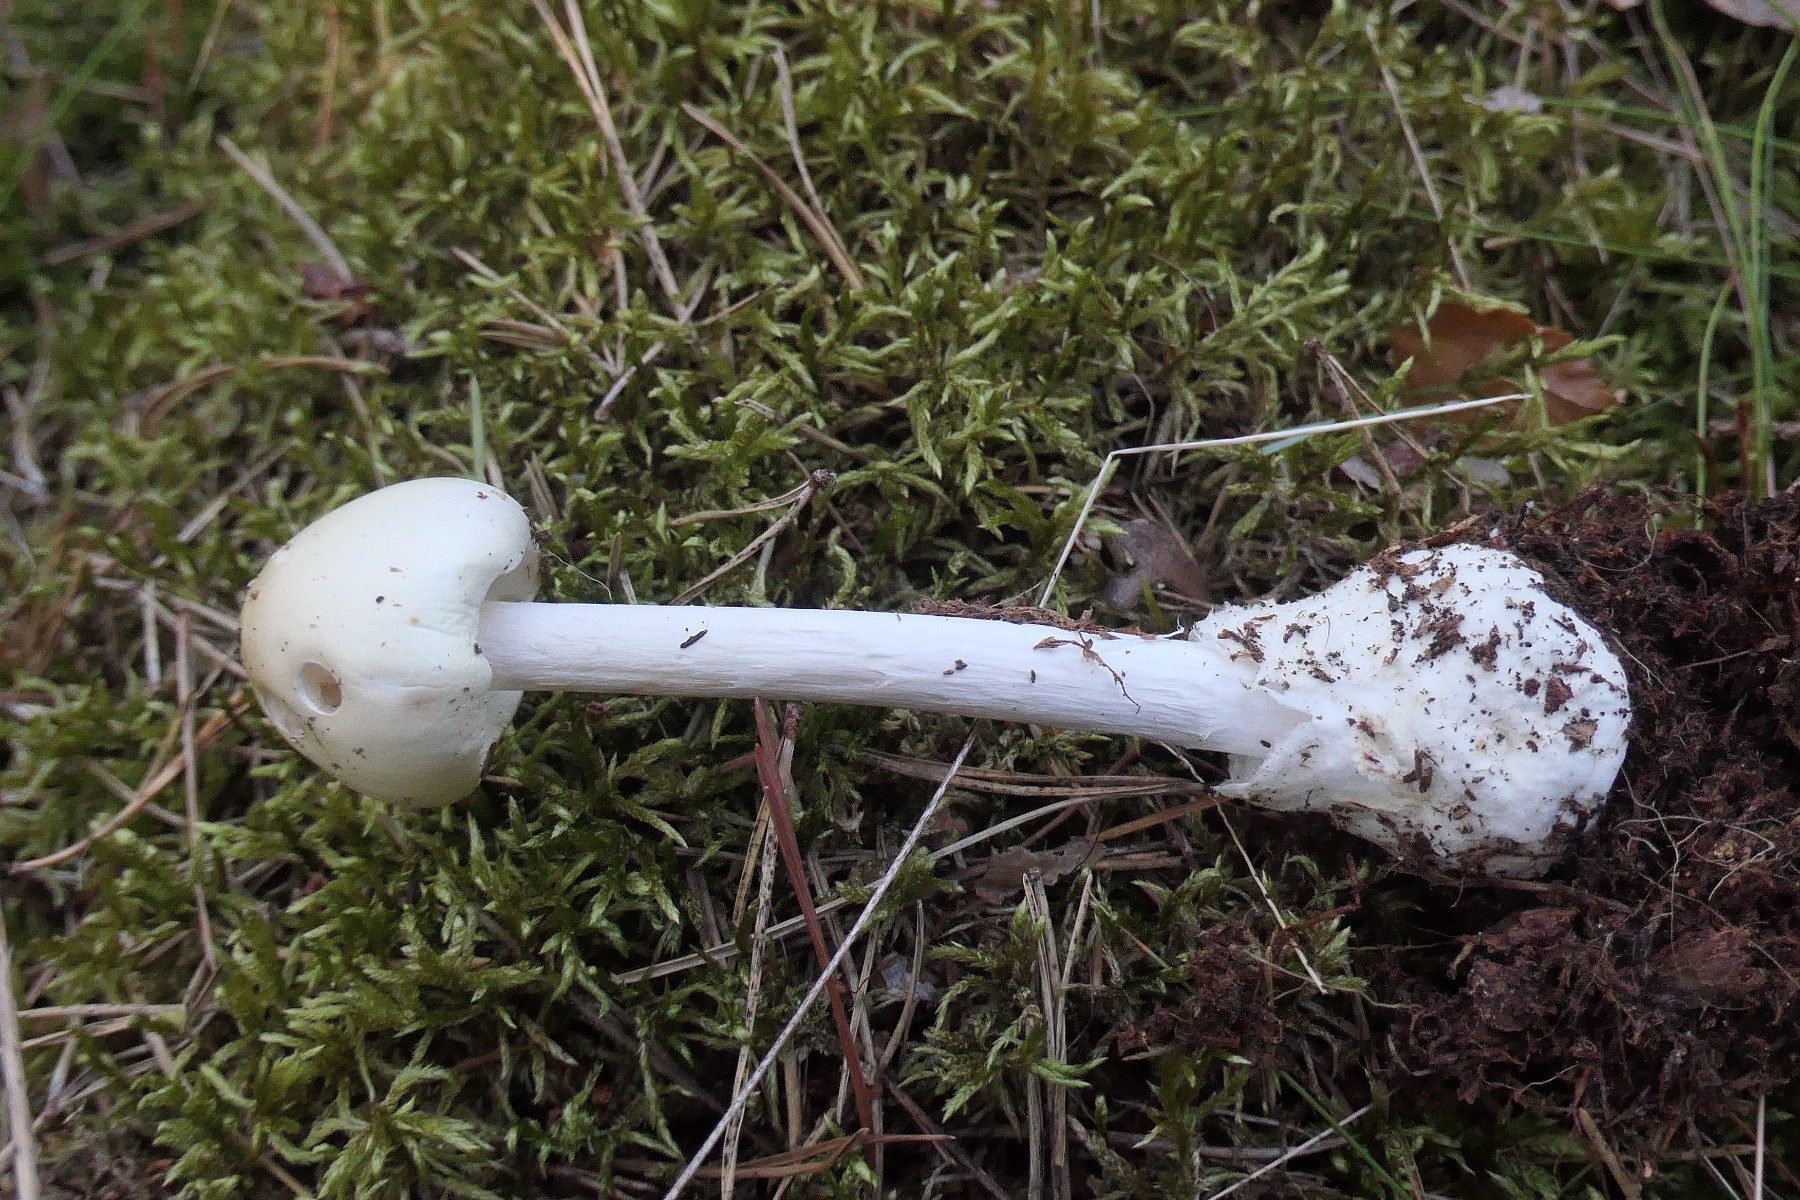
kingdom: Fungi
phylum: Basidiomycota
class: Agaricomycetes
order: Agaricales
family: Amanitaceae
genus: Amanita
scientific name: Amanita virosa
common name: snehvid fluesvamp
